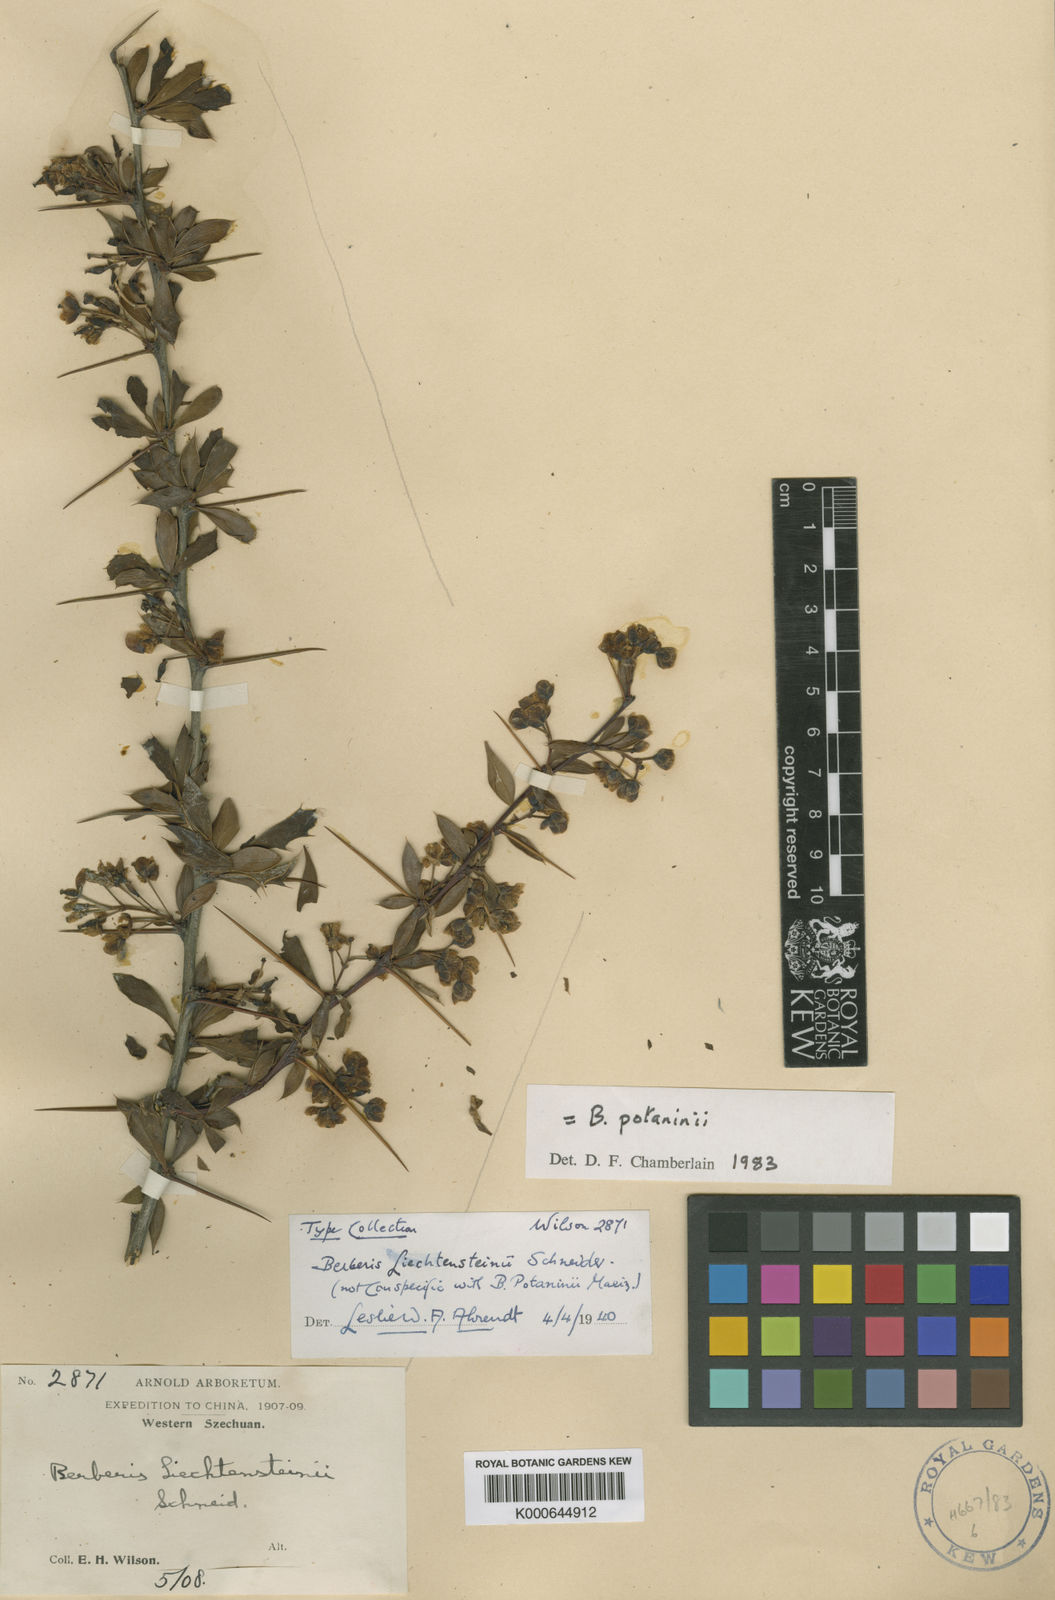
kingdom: Plantae
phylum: Tracheophyta
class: Magnoliopsida
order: Ranunculales
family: Berberidaceae
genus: Berberis
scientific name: Berberis potaninii
